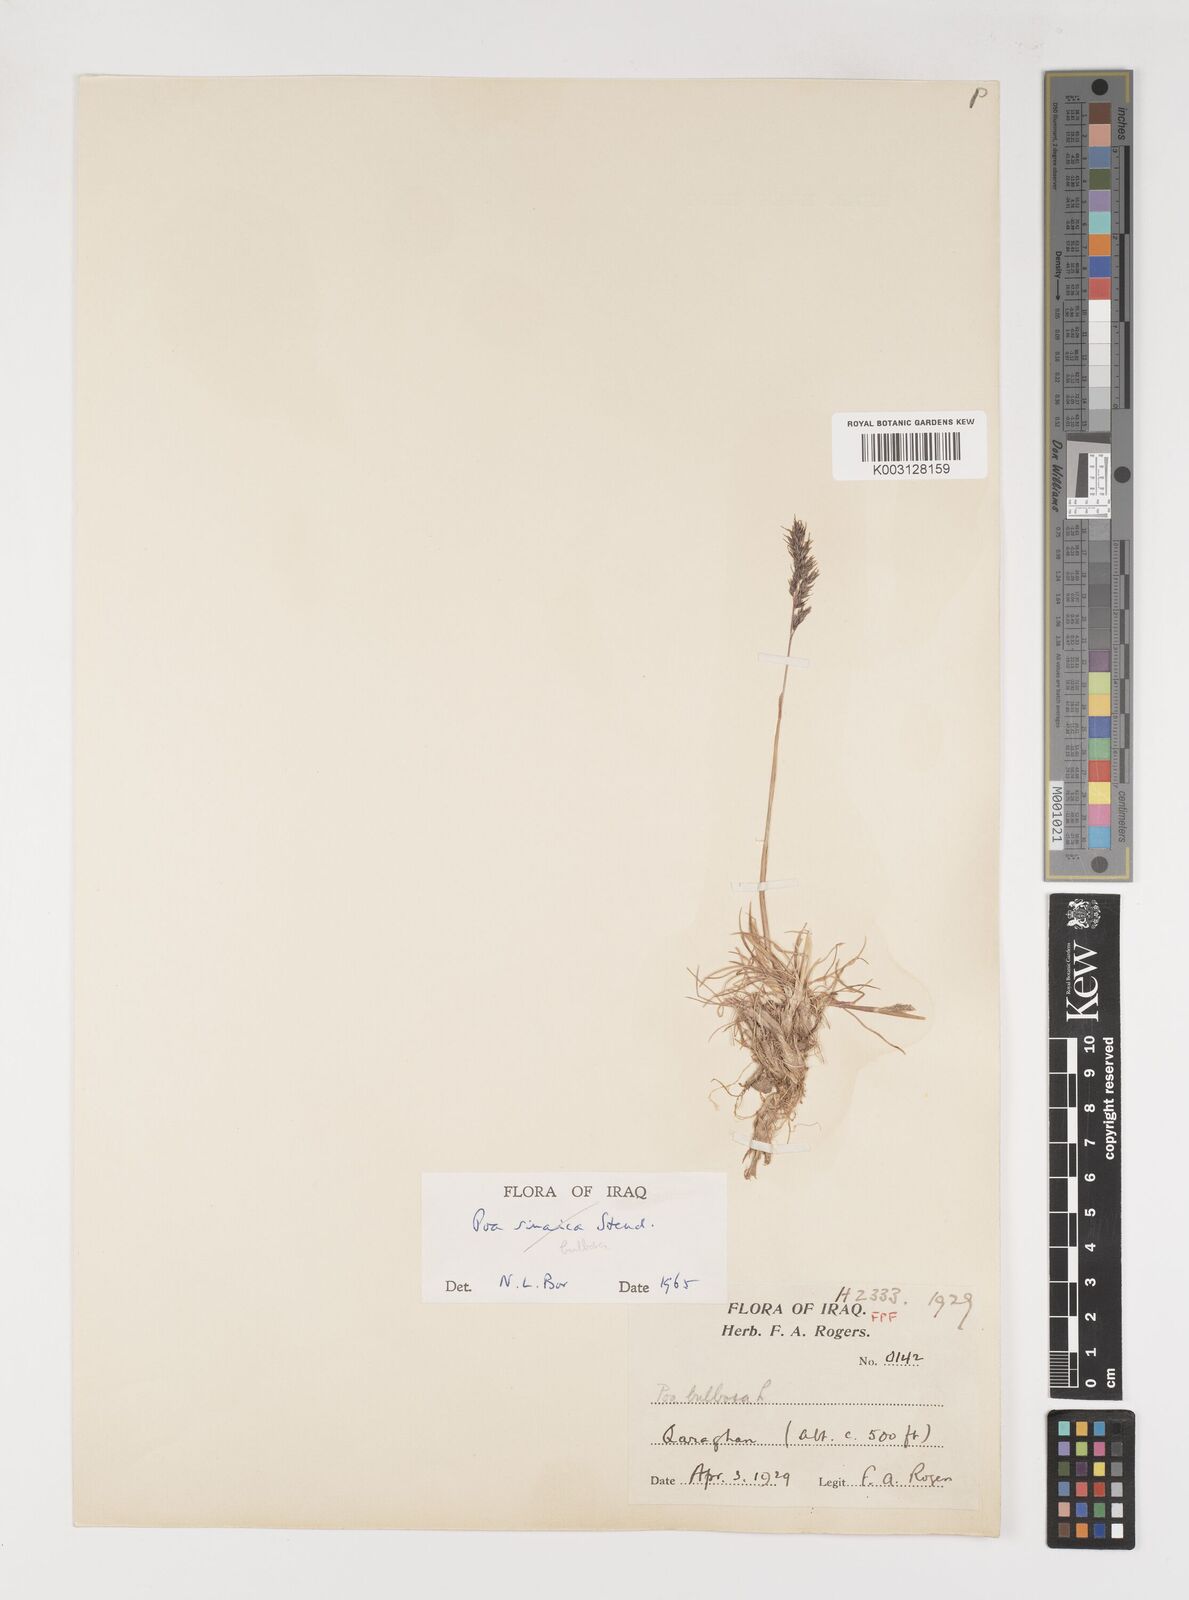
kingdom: Plantae
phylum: Tracheophyta
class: Liliopsida
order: Poales
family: Poaceae
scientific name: Poaceae
